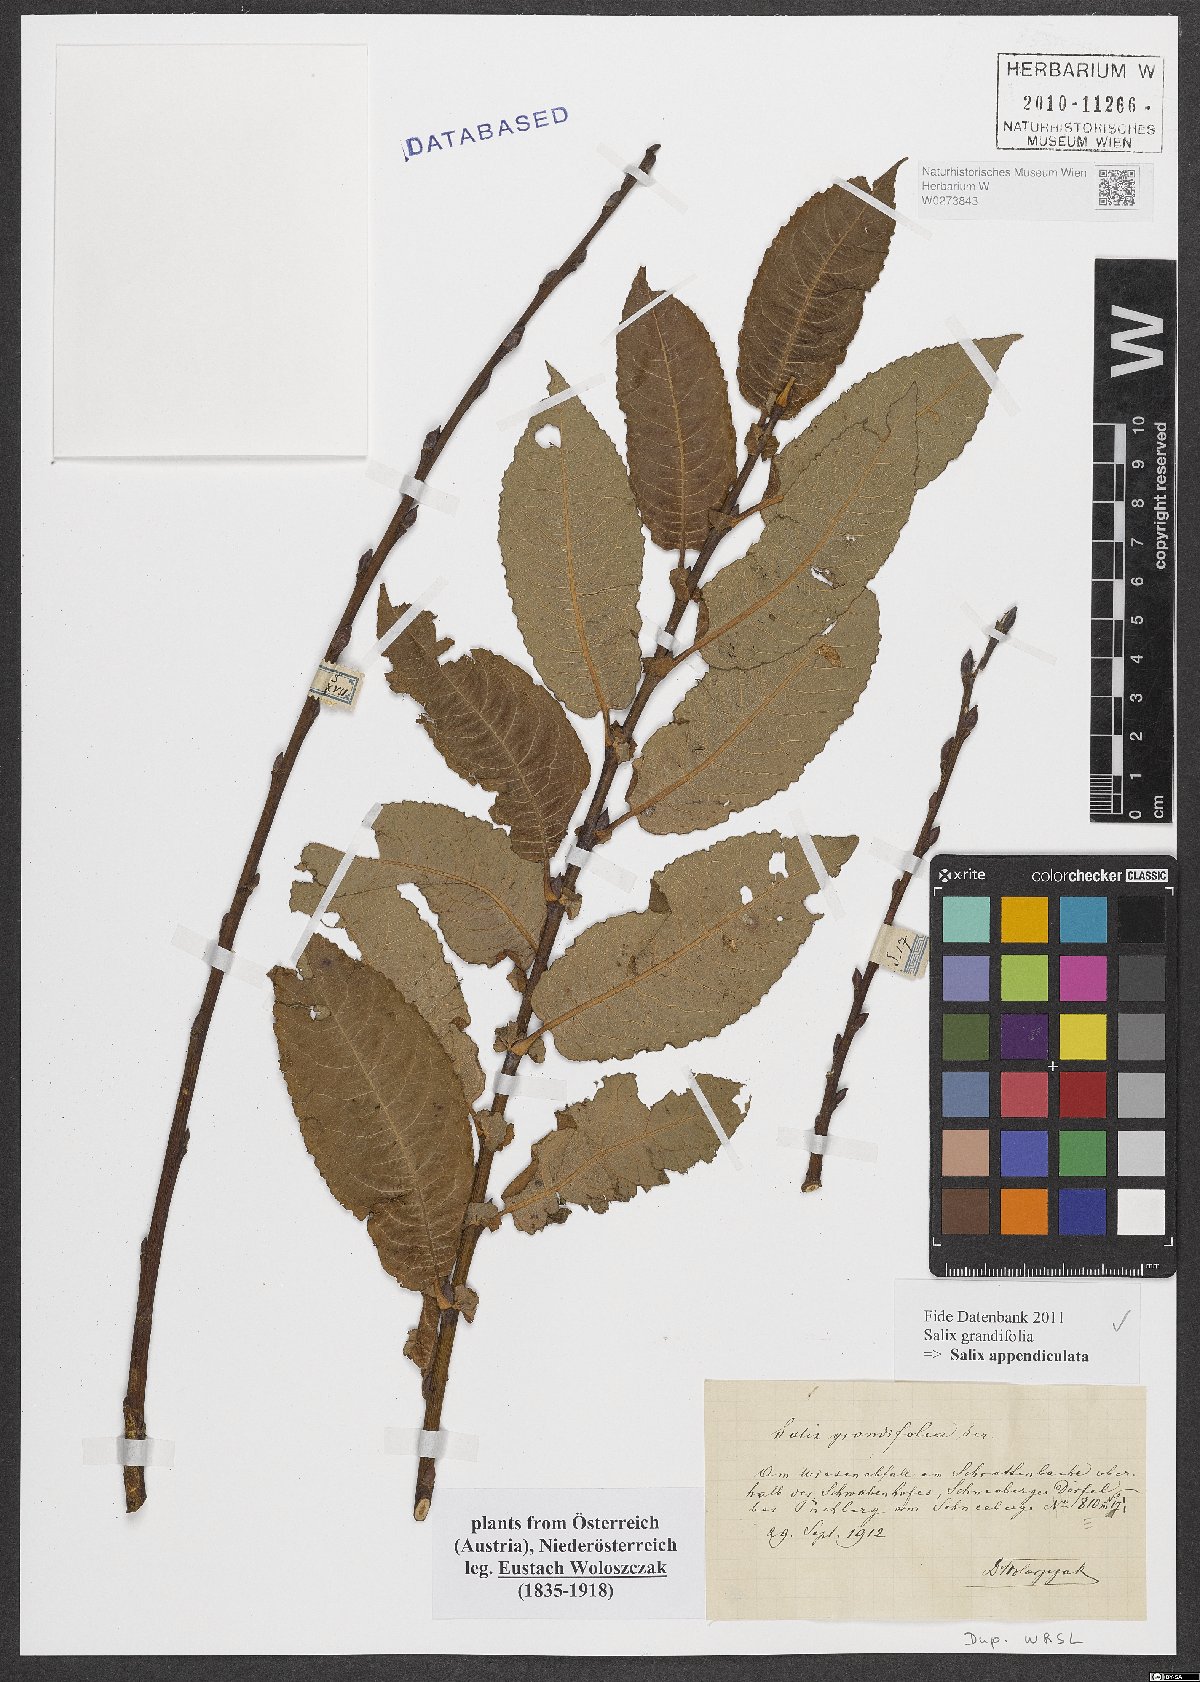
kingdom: Plantae
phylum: Tracheophyta
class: Magnoliopsida
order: Malpighiales
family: Salicaceae
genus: Salix
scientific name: Salix appendiculata
